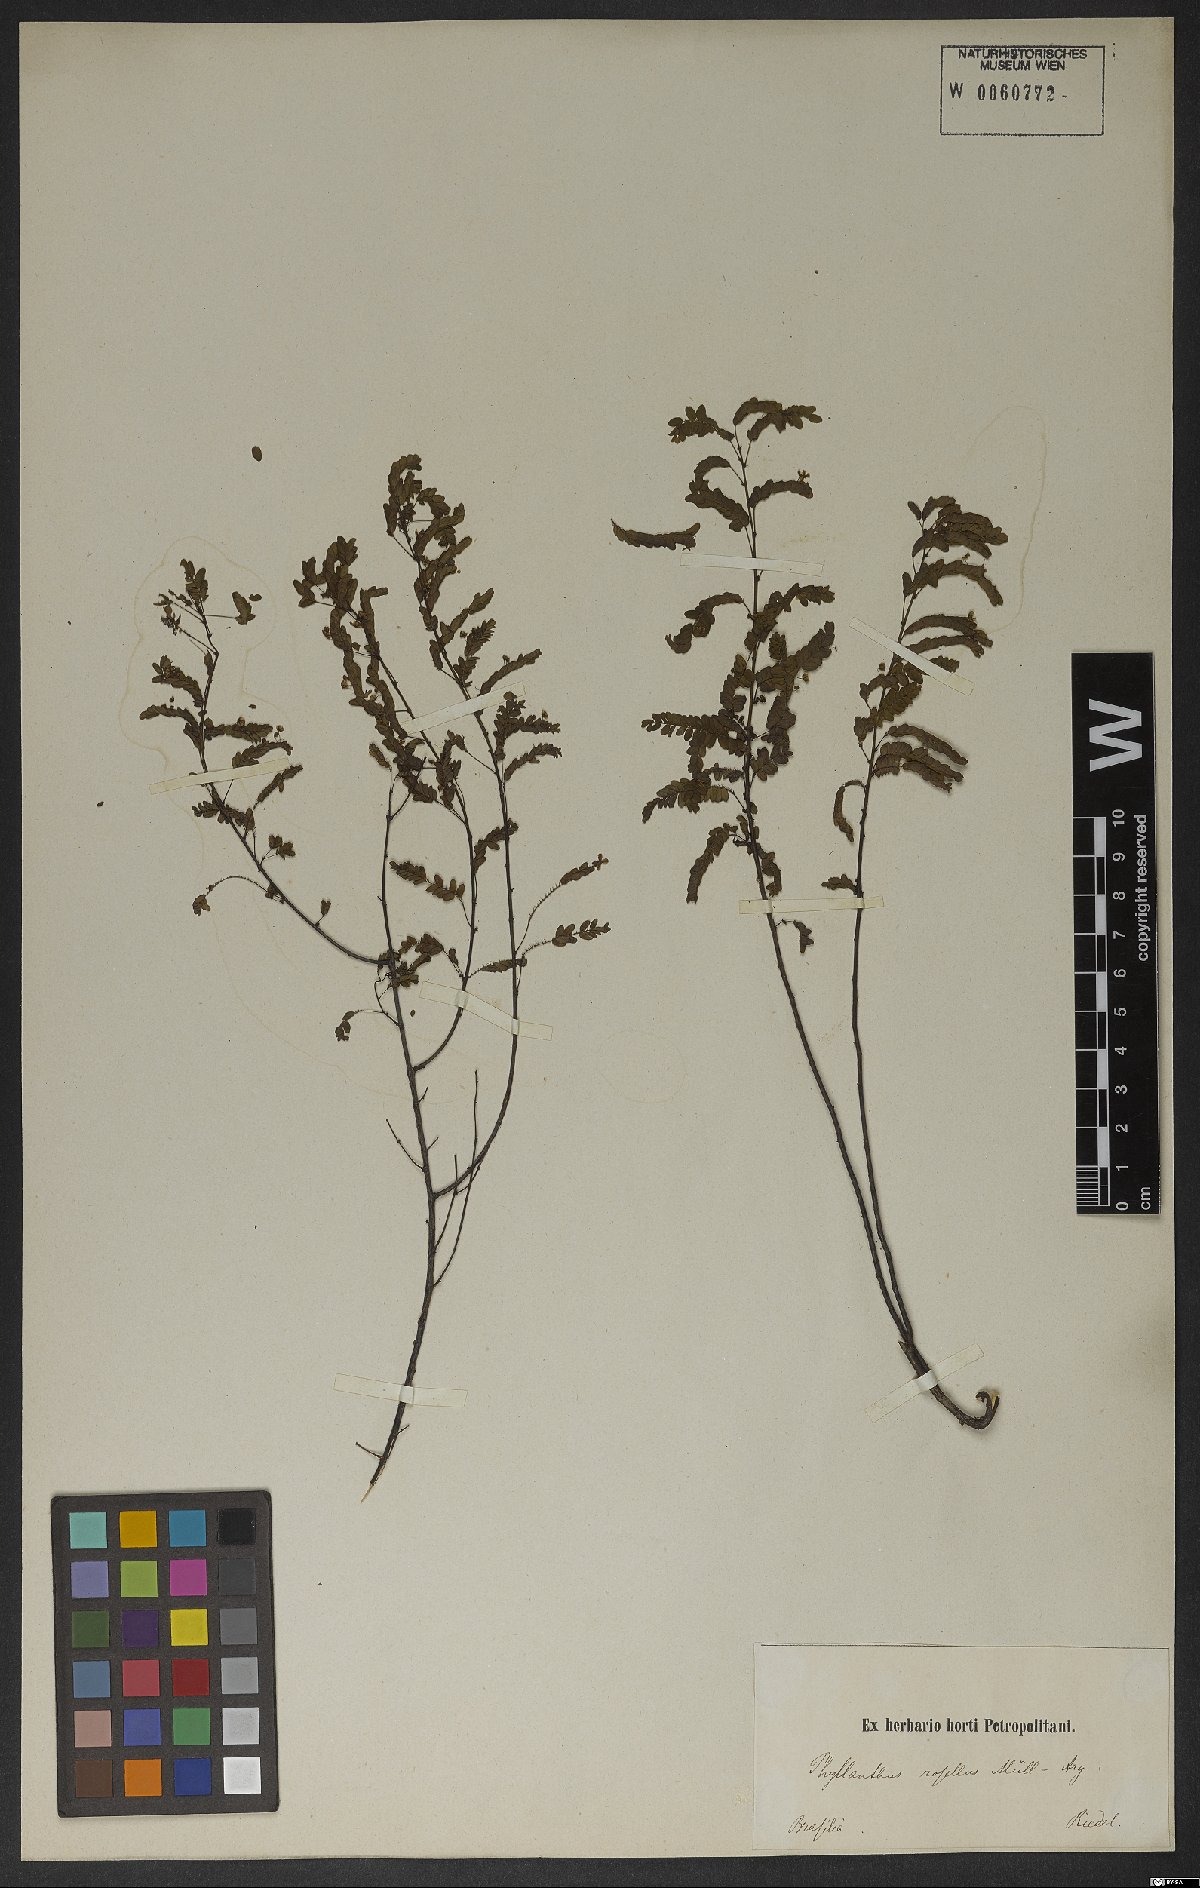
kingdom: Plantae
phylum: Tracheophyta
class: Magnoliopsida
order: Malpighiales
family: Phyllanthaceae
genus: Phyllanthus
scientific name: Phyllanthus niruri
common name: Niruri
